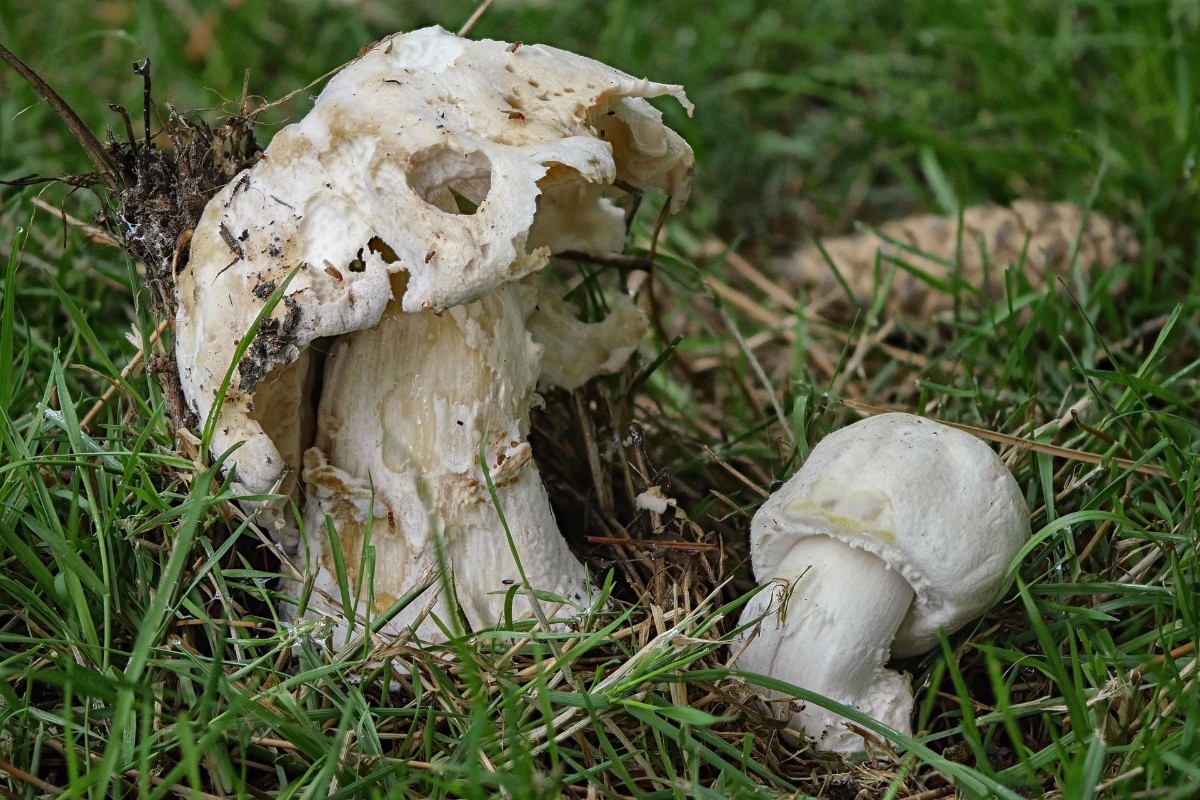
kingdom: Fungi
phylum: Basidiomycota
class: Agaricomycetes
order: Agaricales
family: Agaricaceae
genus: Agaricus
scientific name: Agaricus xanthodermus
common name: karbol-champignon
